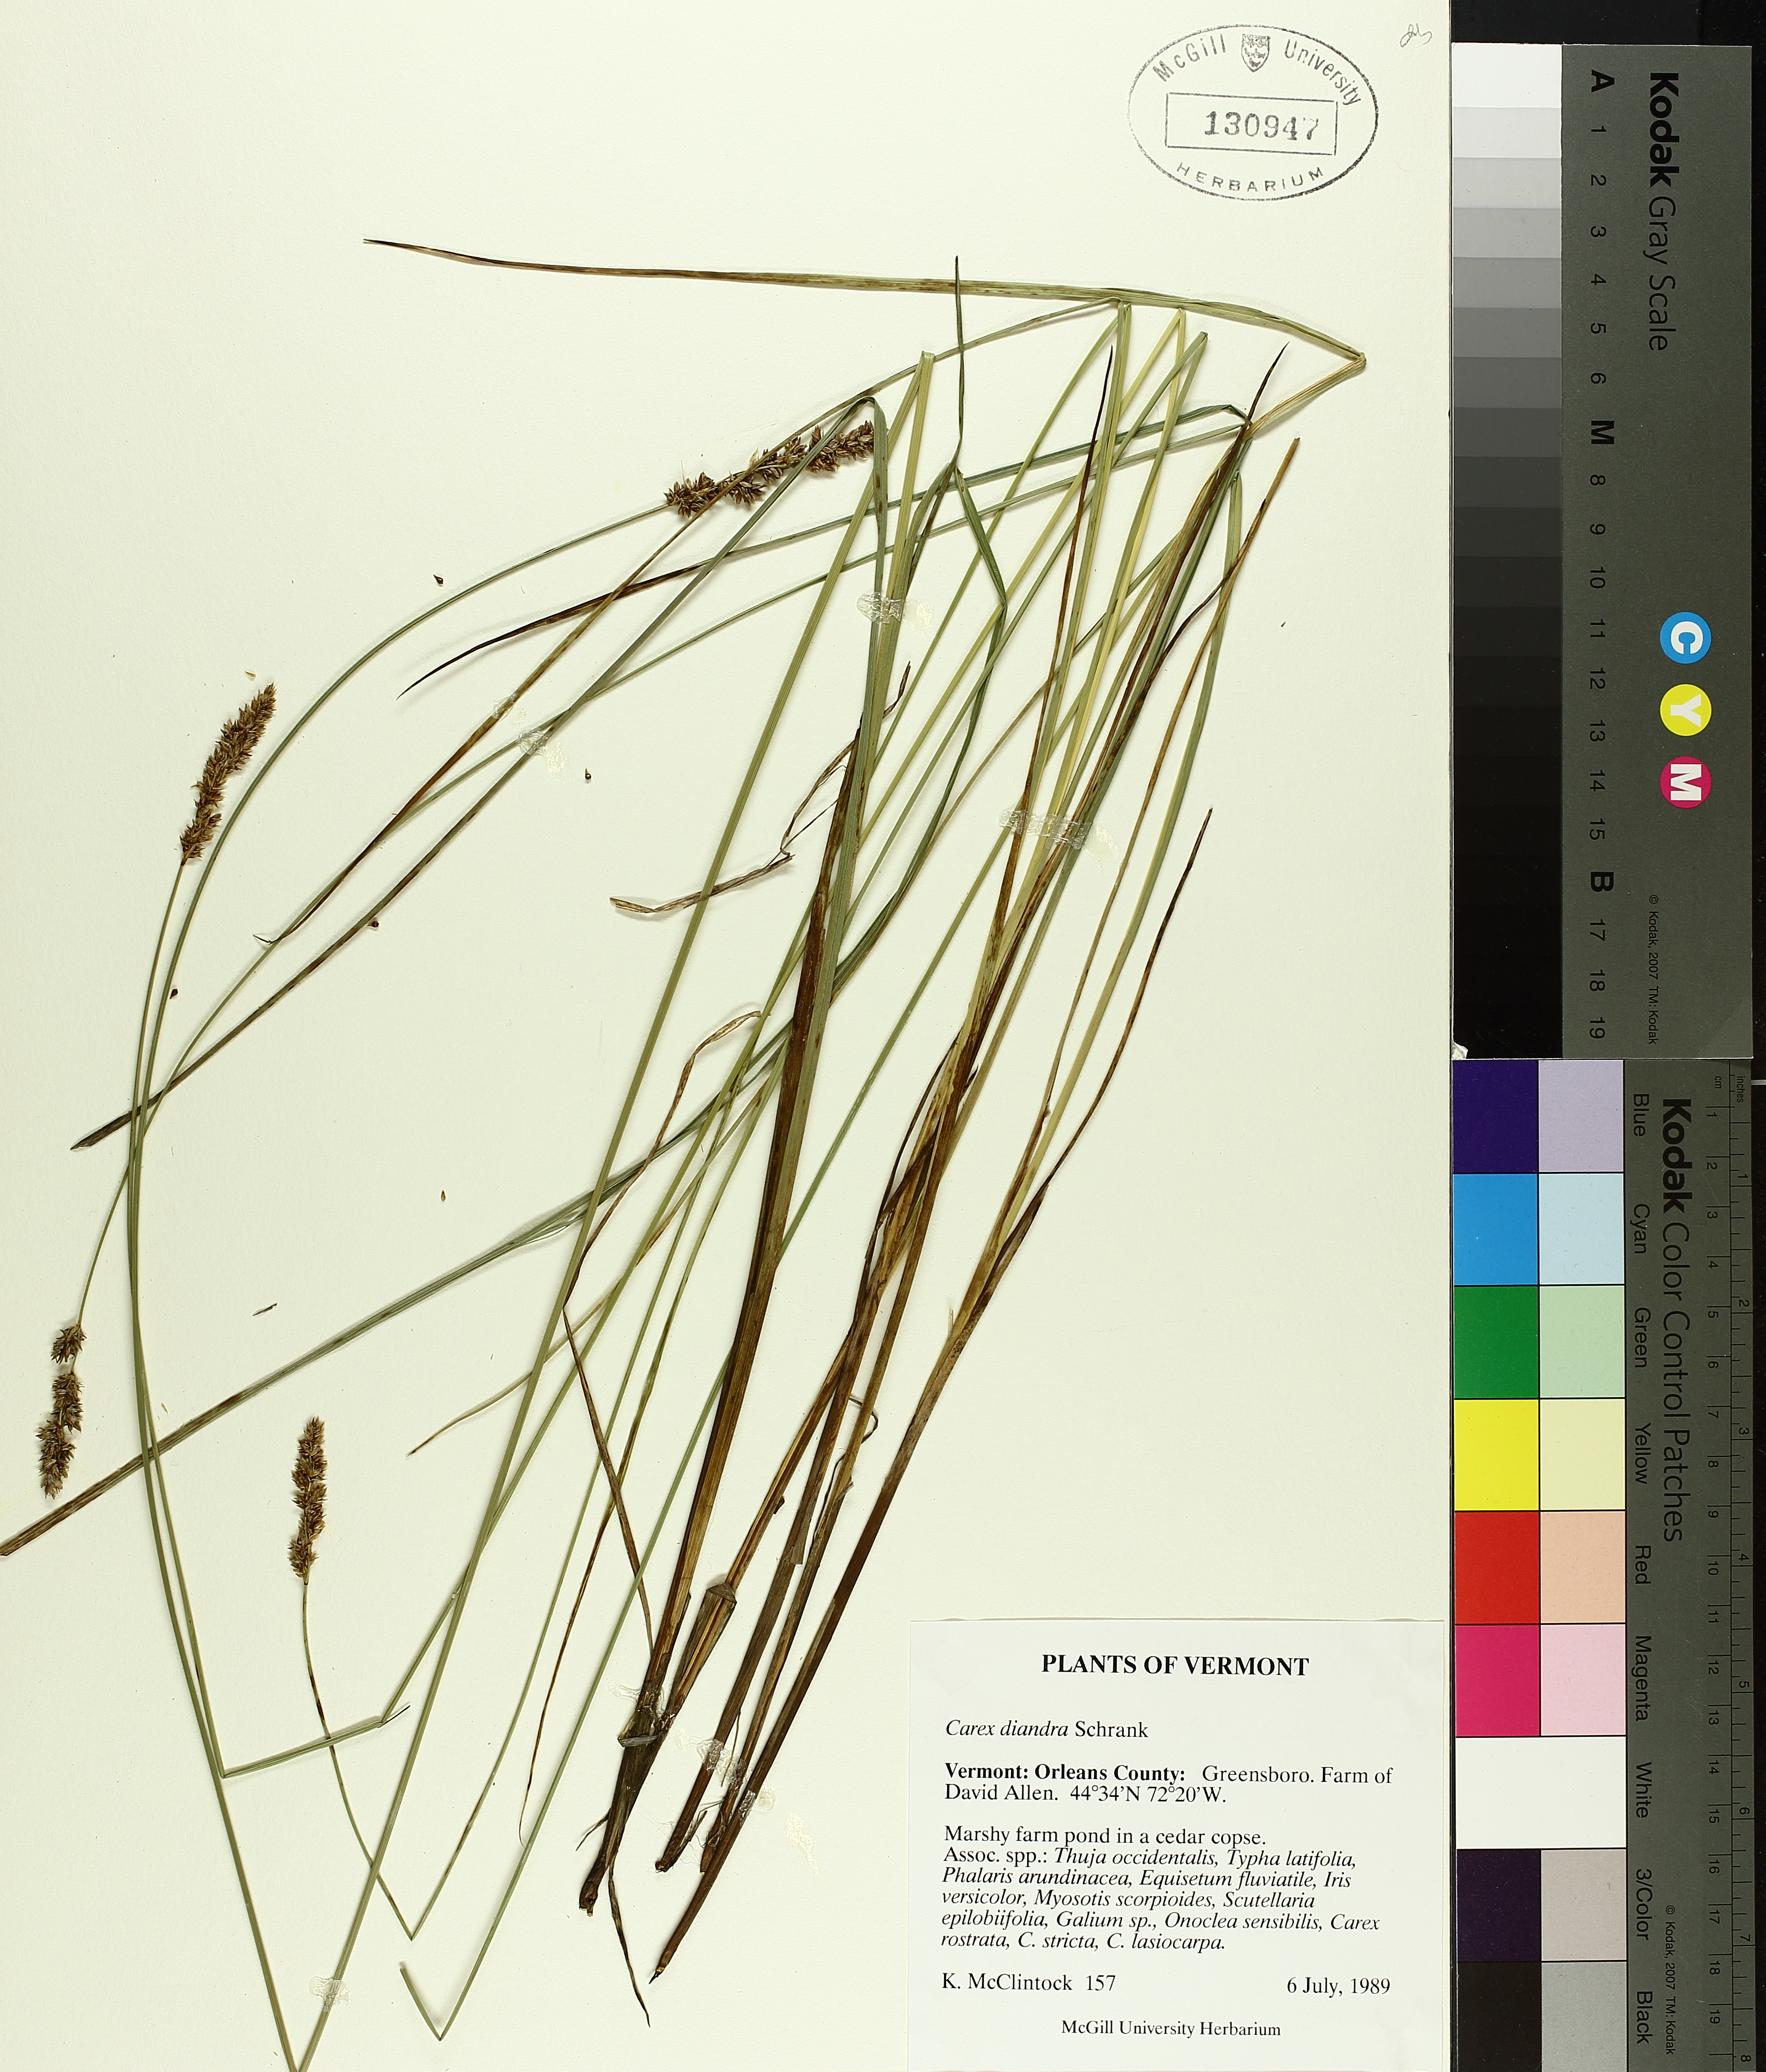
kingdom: Plantae
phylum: Tracheophyta
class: Liliopsida
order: Poales
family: Cyperaceae
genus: Carex
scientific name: Carex diandra
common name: Lesser tussock-sedge
